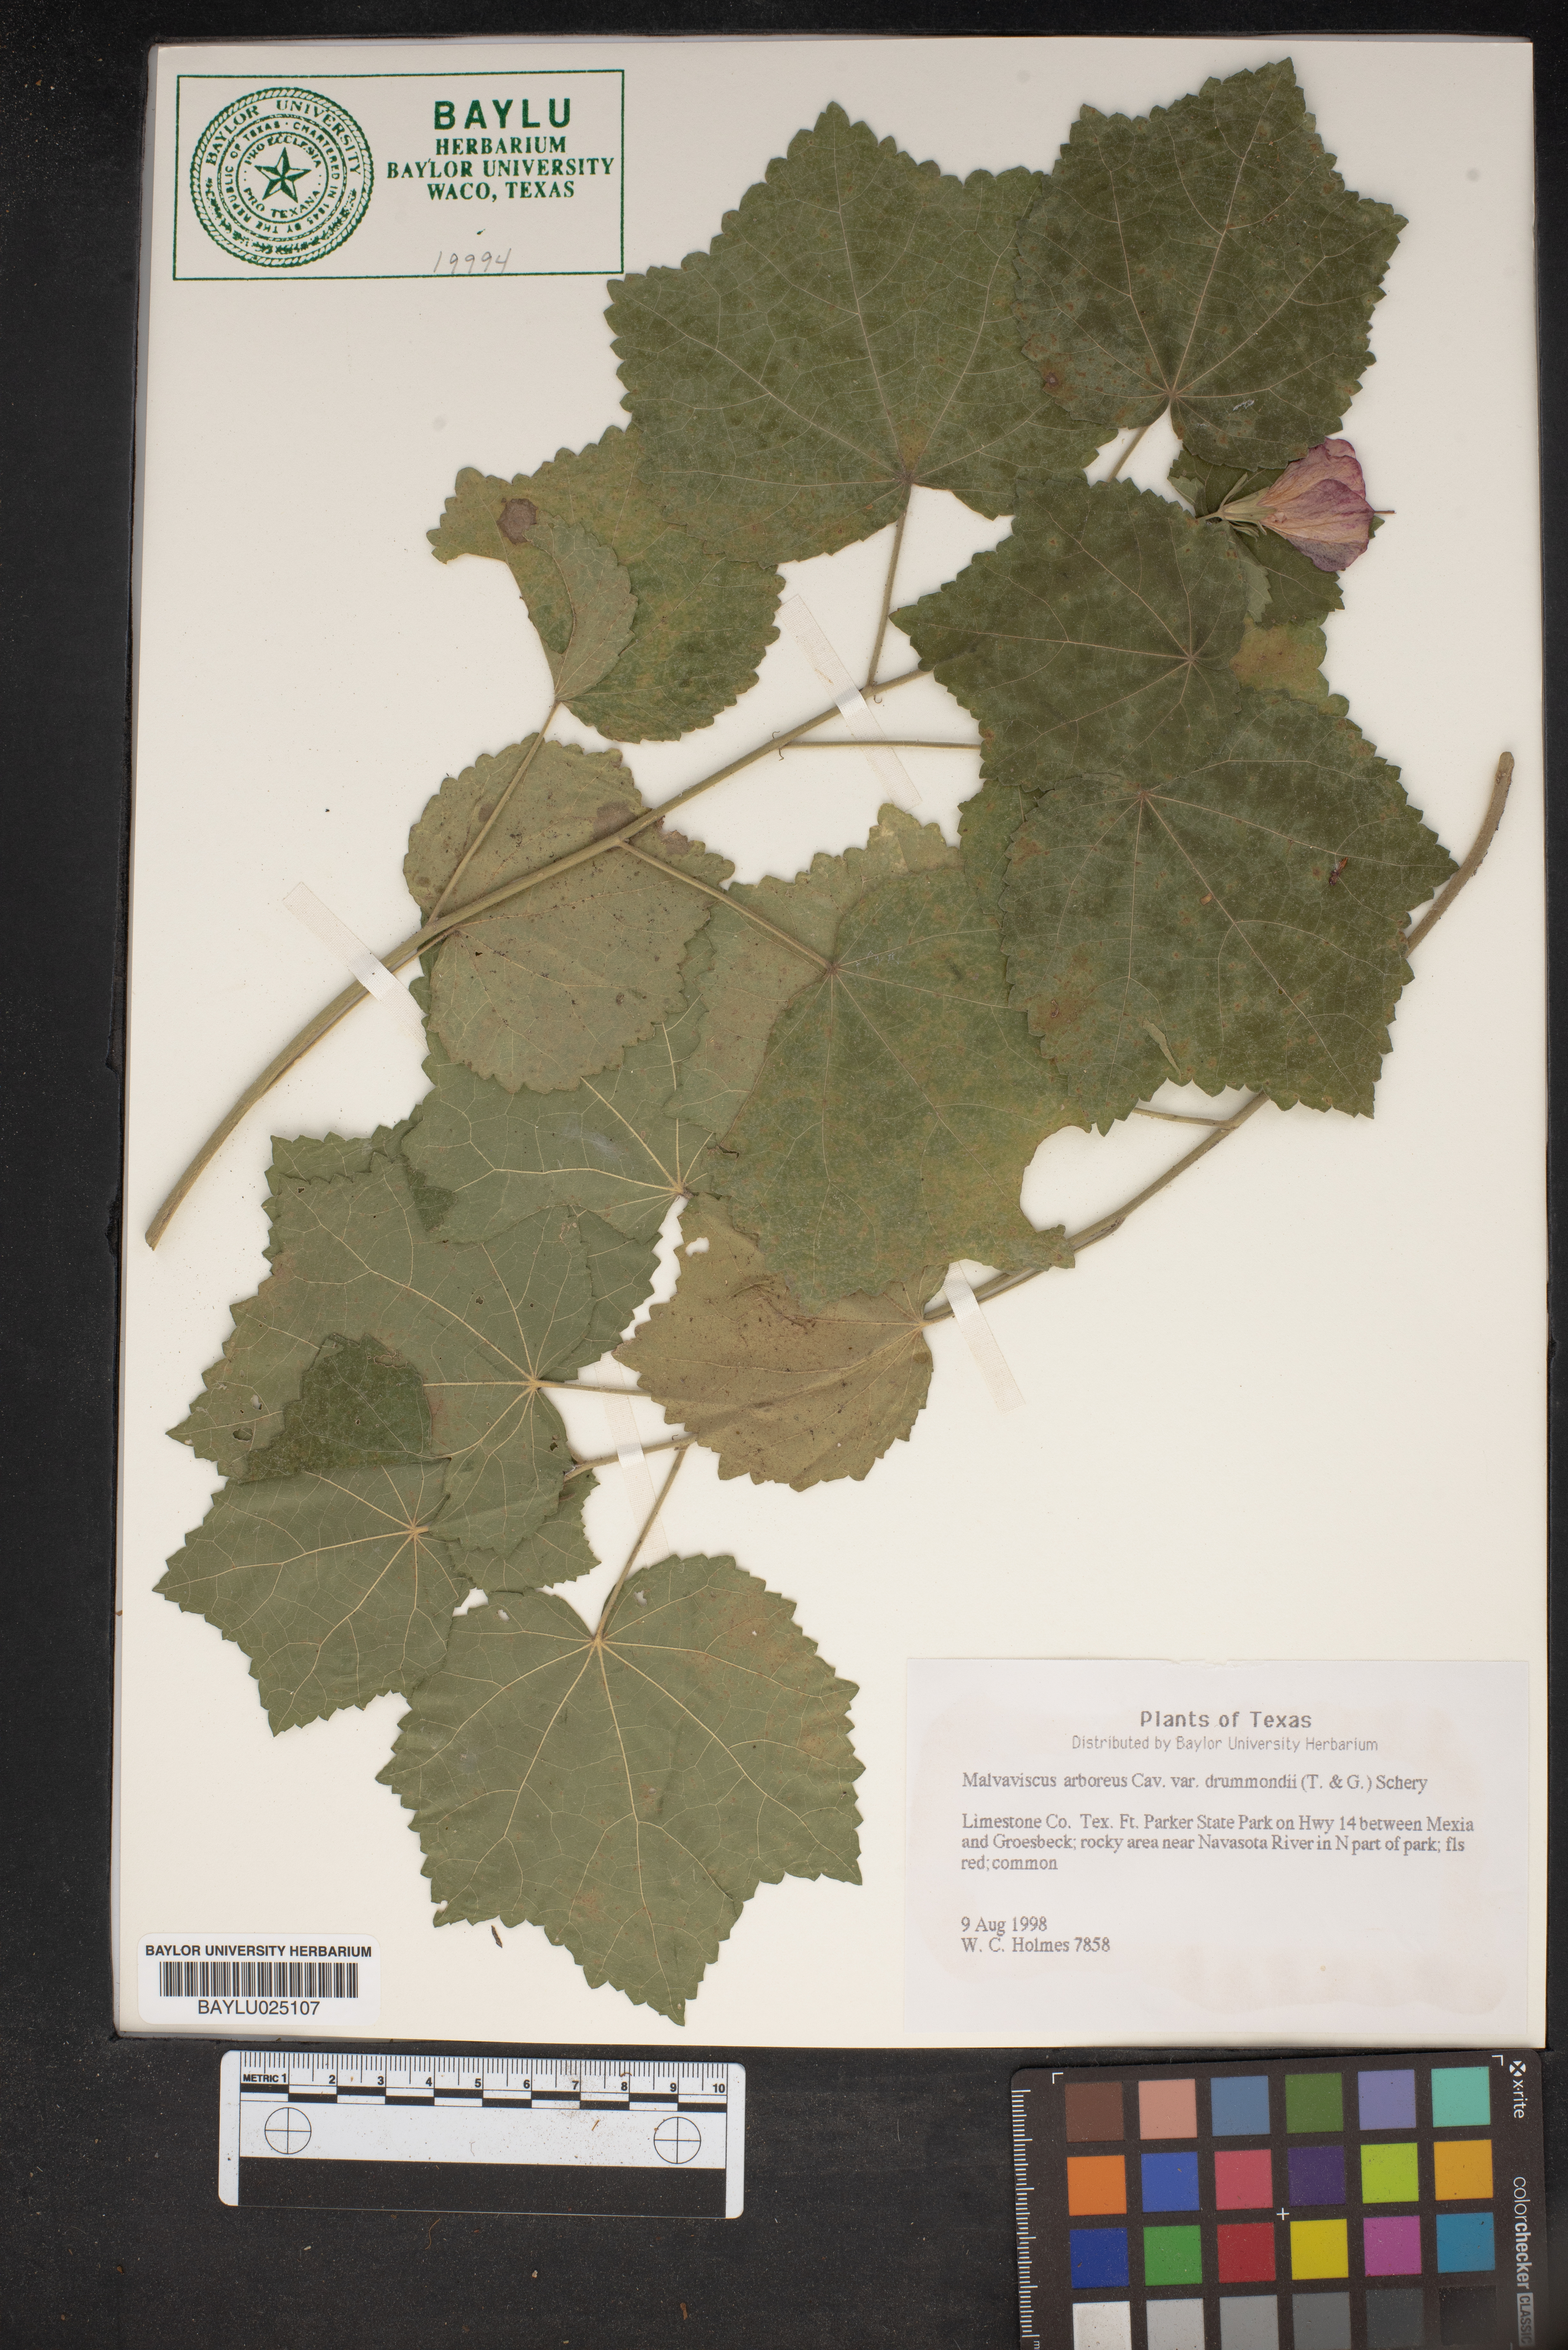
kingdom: Plantae
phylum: Tracheophyta
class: Magnoliopsida
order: Malvales
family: Malvaceae
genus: Malvaviscus
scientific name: Malvaviscus arboreus
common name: Wax mallow
